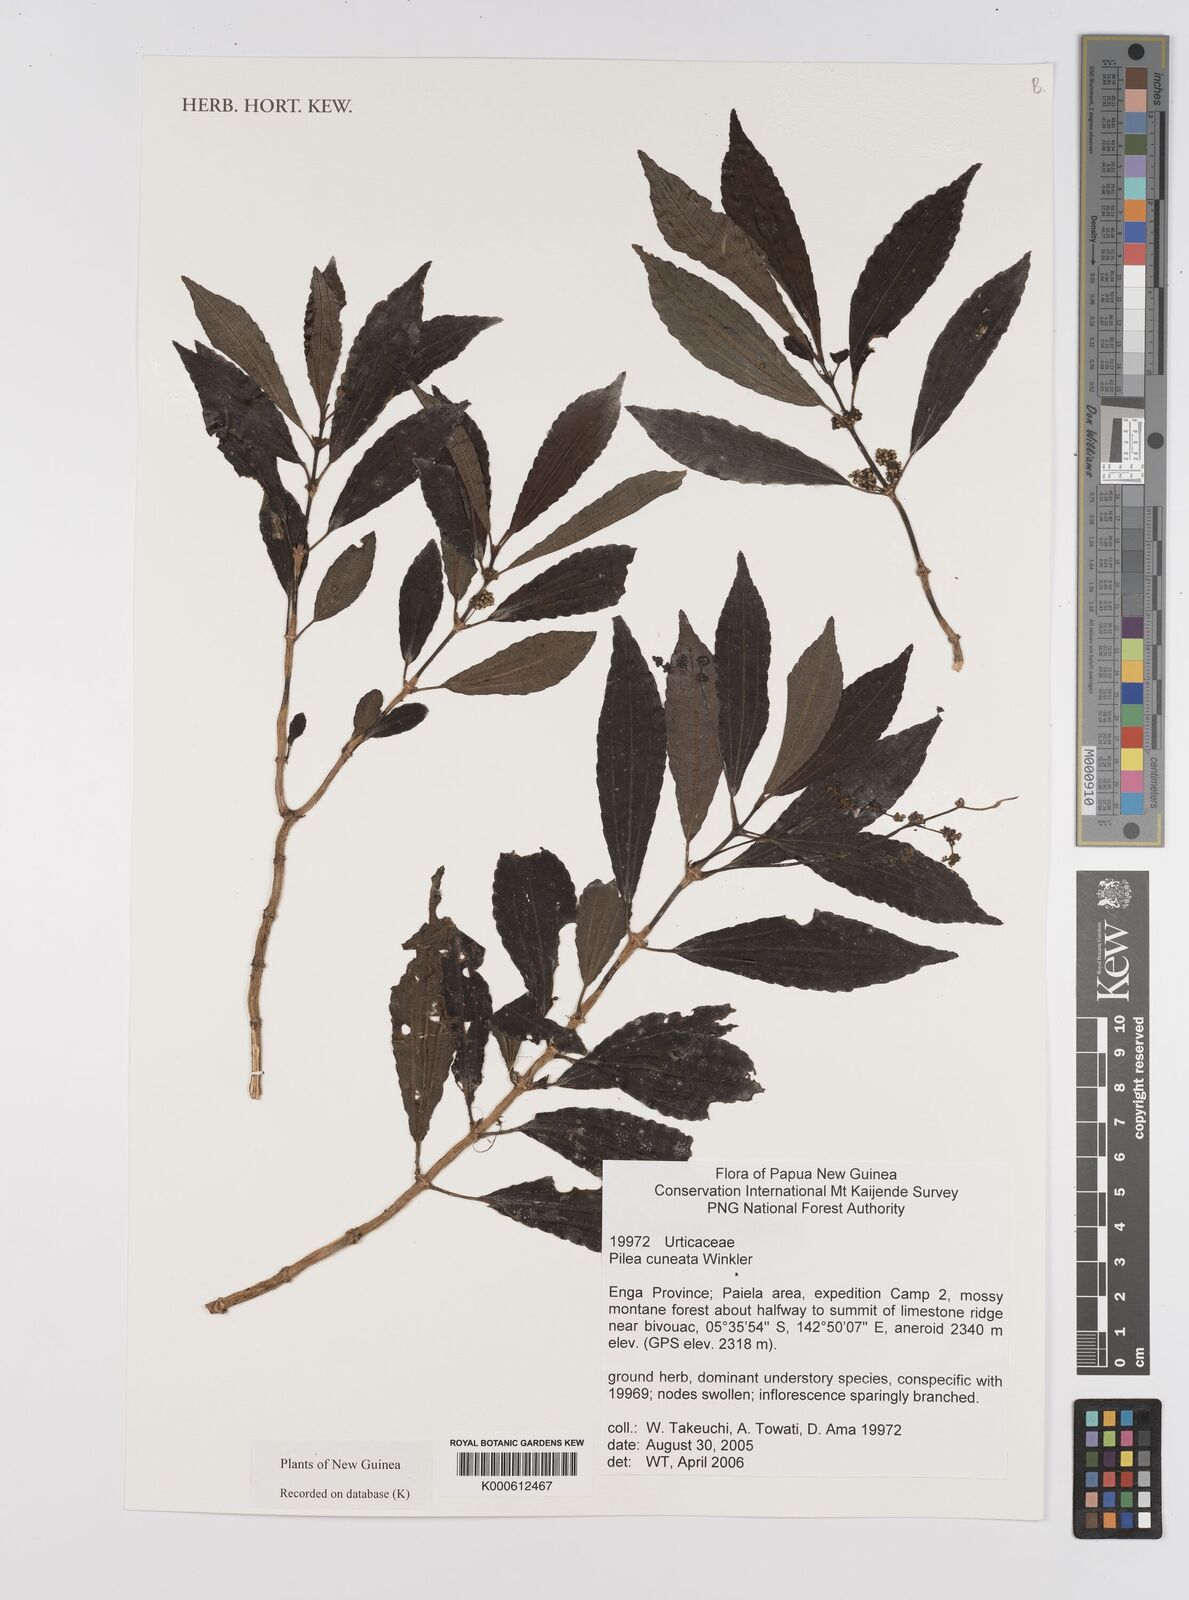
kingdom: Plantae
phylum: Tracheophyta
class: Magnoliopsida
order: Rosales
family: Urticaceae
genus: Pilea
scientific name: Pilea caudata
